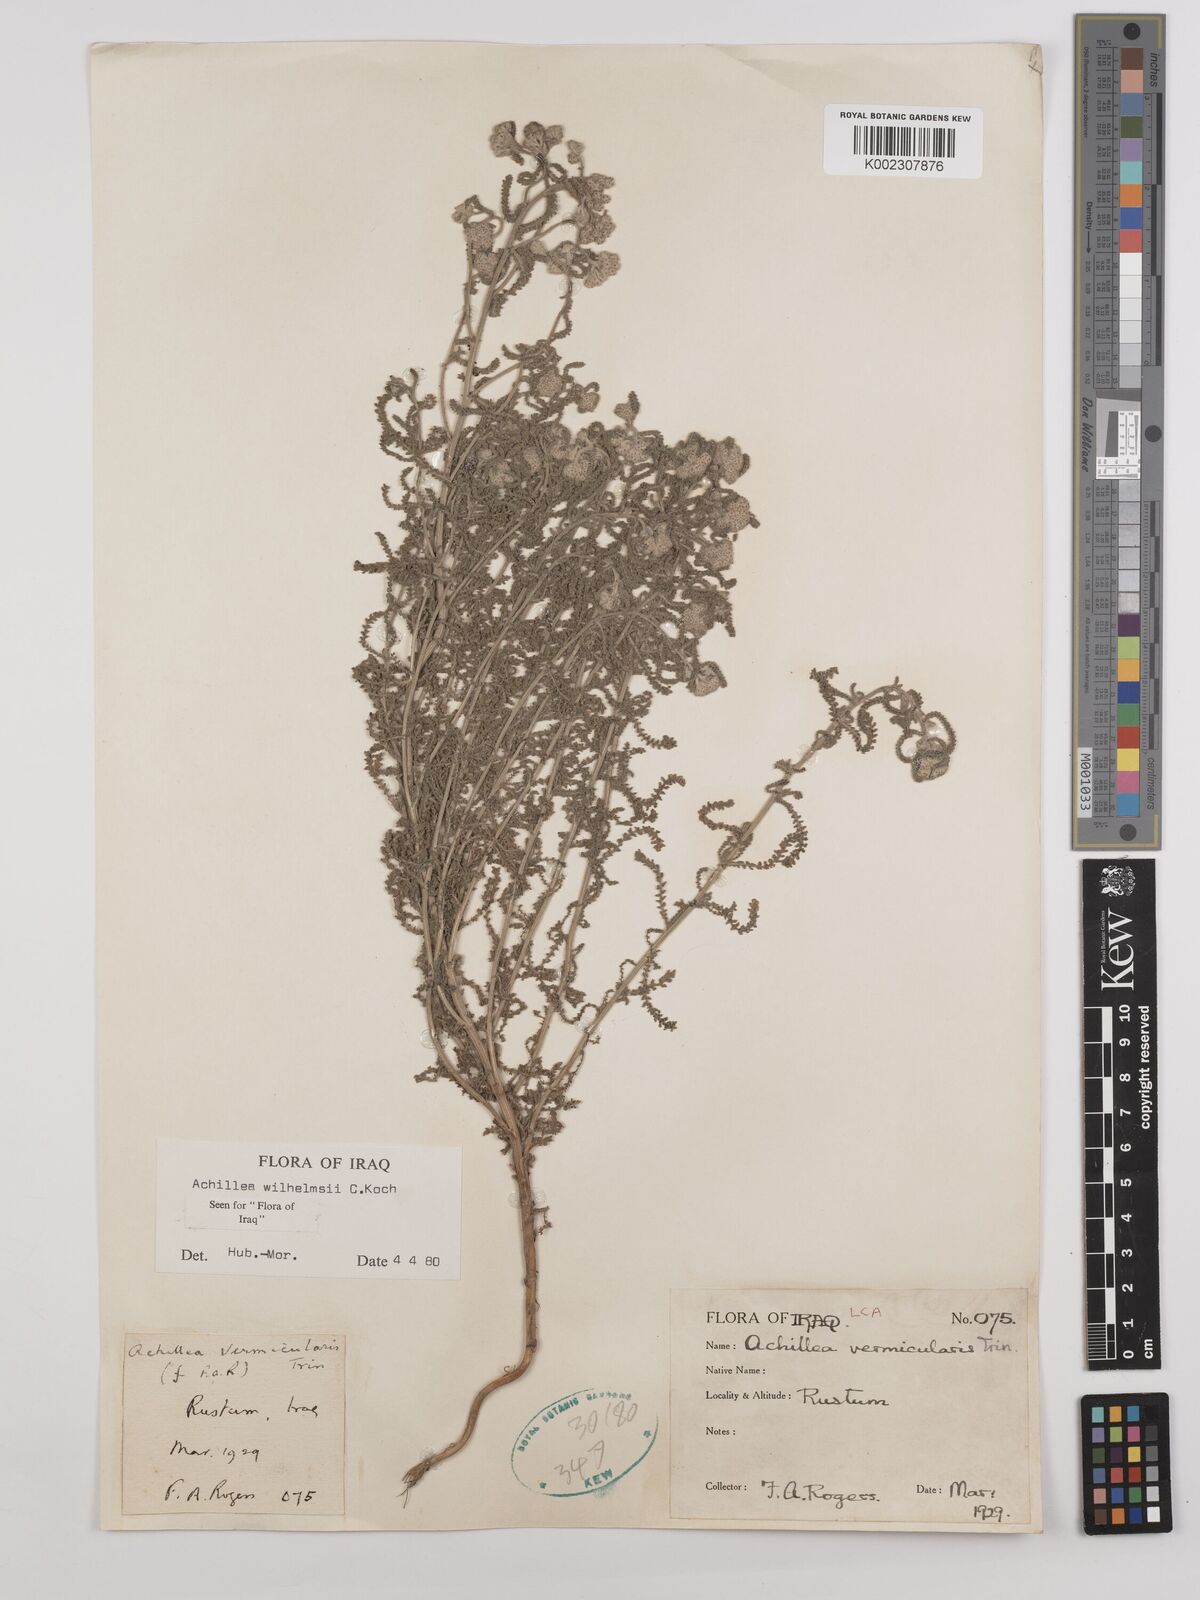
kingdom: Plantae
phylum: Tracheophyta
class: Magnoliopsida
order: Asterales
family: Asteraceae
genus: Achillea
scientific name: Achillea wilhelmsii
